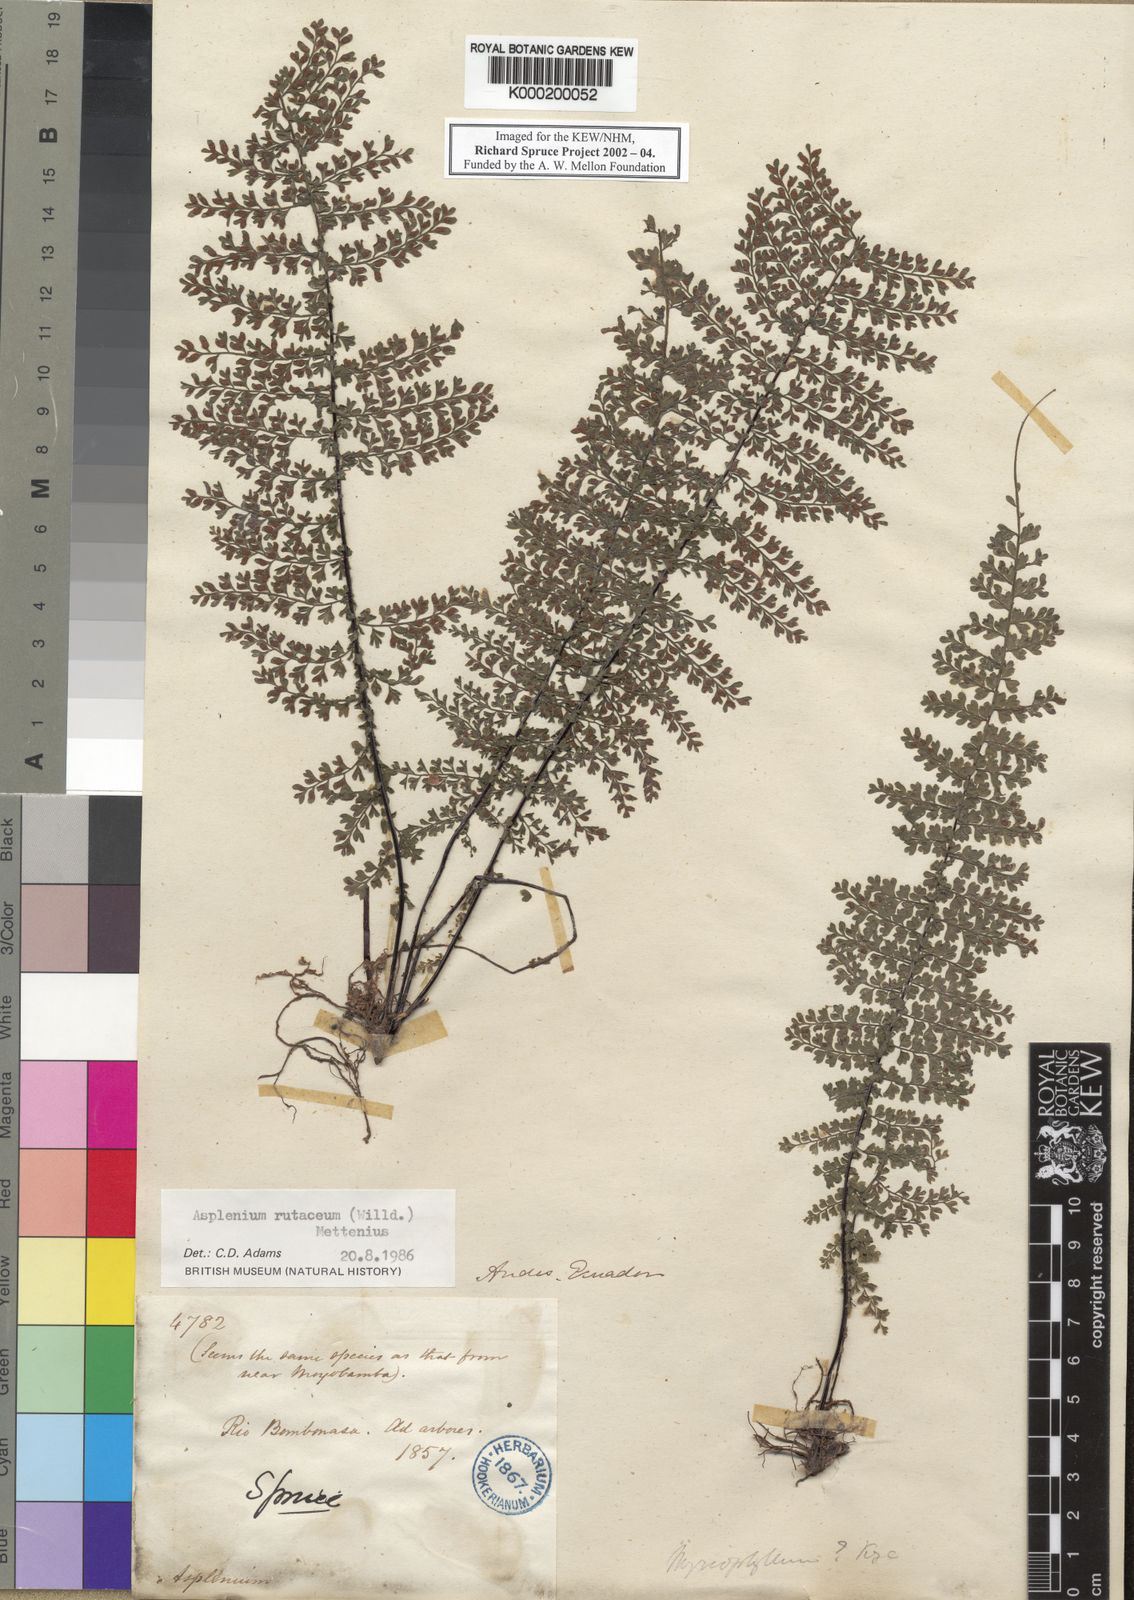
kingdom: Plantae
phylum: Tracheophyta
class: Polypodiopsida
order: Polypodiales
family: Aspleniaceae
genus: Asplenium
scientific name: Asplenium rutaceum
